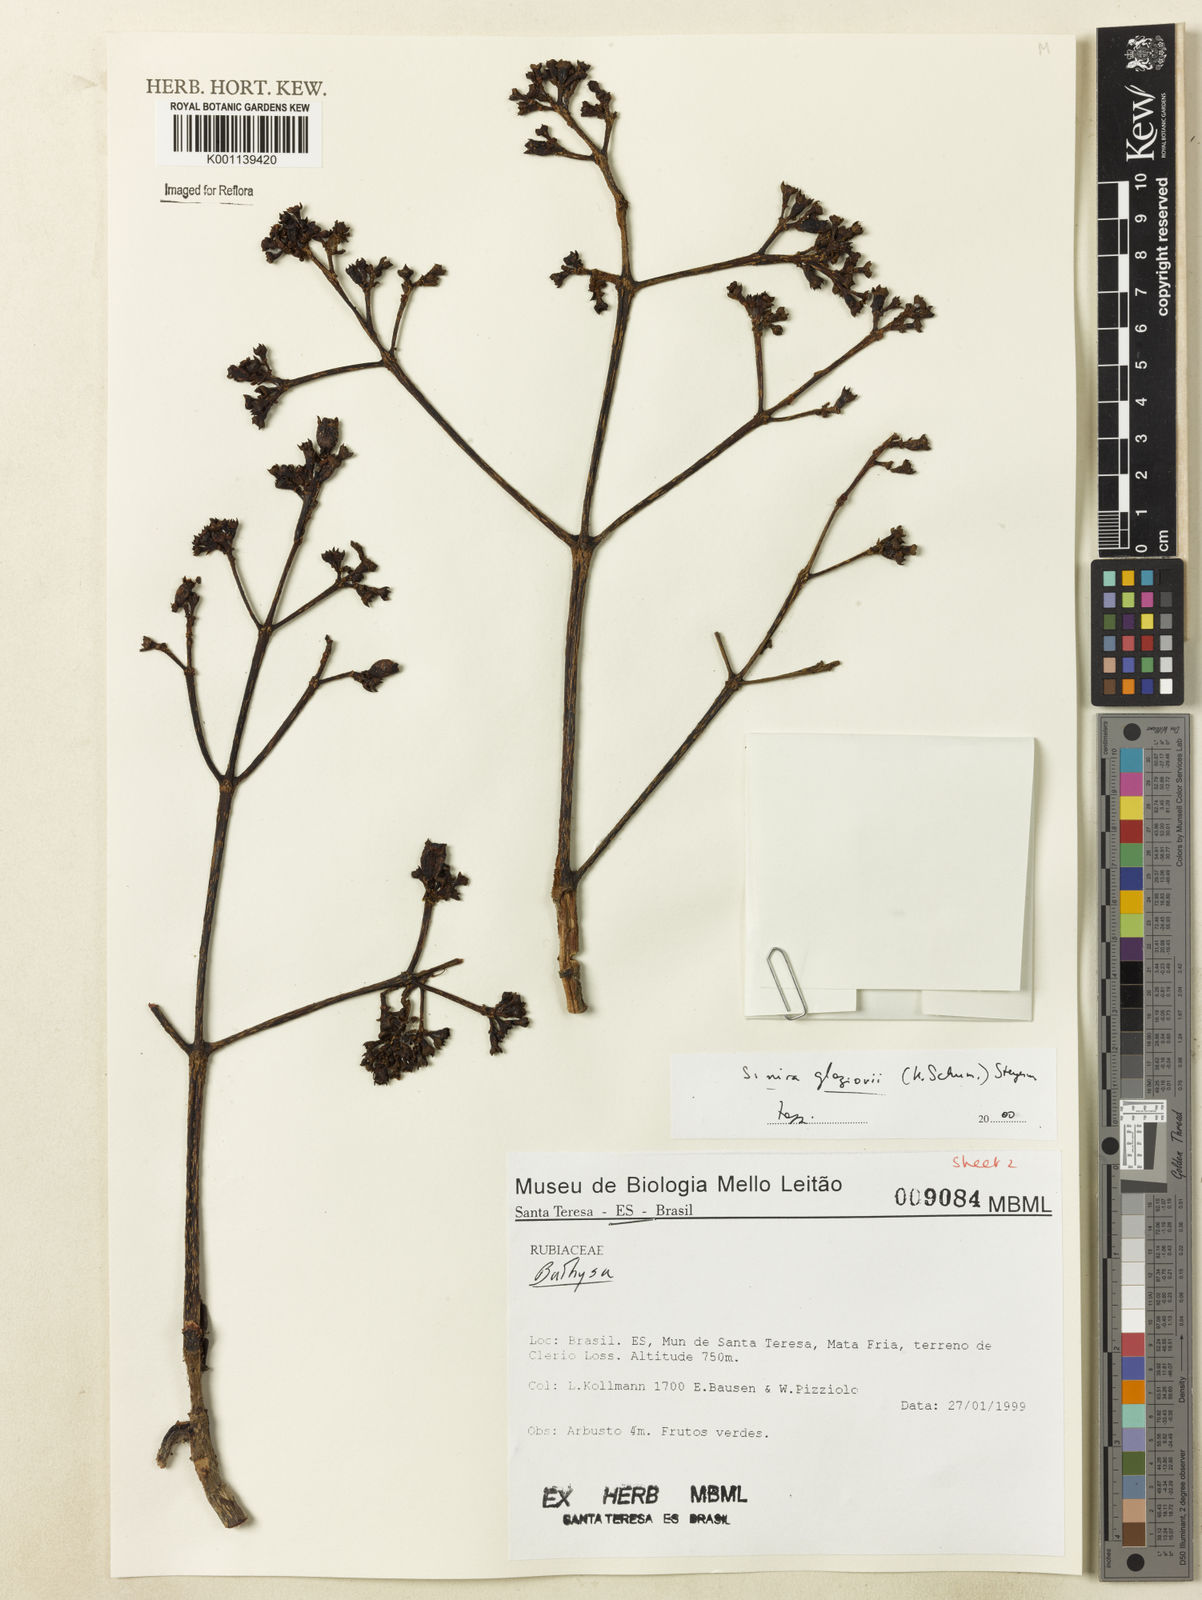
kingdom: Plantae
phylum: Tracheophyta
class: Magnoliopsida
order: Gentianales
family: Rubiaceae
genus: Simira
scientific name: Simira alba
